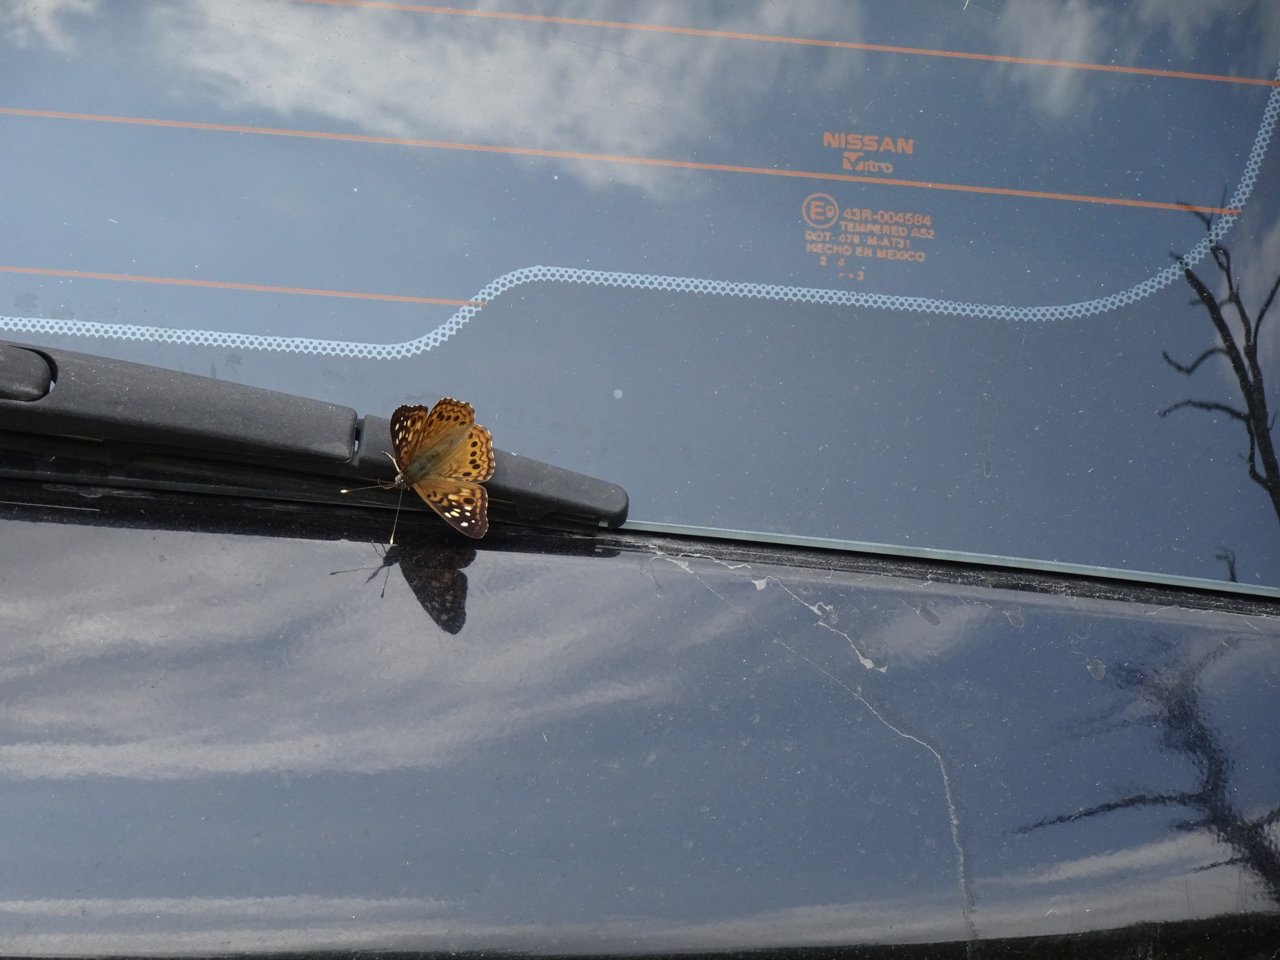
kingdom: Animalia
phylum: Arthropoda
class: Insecta
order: Lepidoptera
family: Nymphalidae
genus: Asterocampa
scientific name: Asterocampa celtis
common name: Hackberry Emperor
